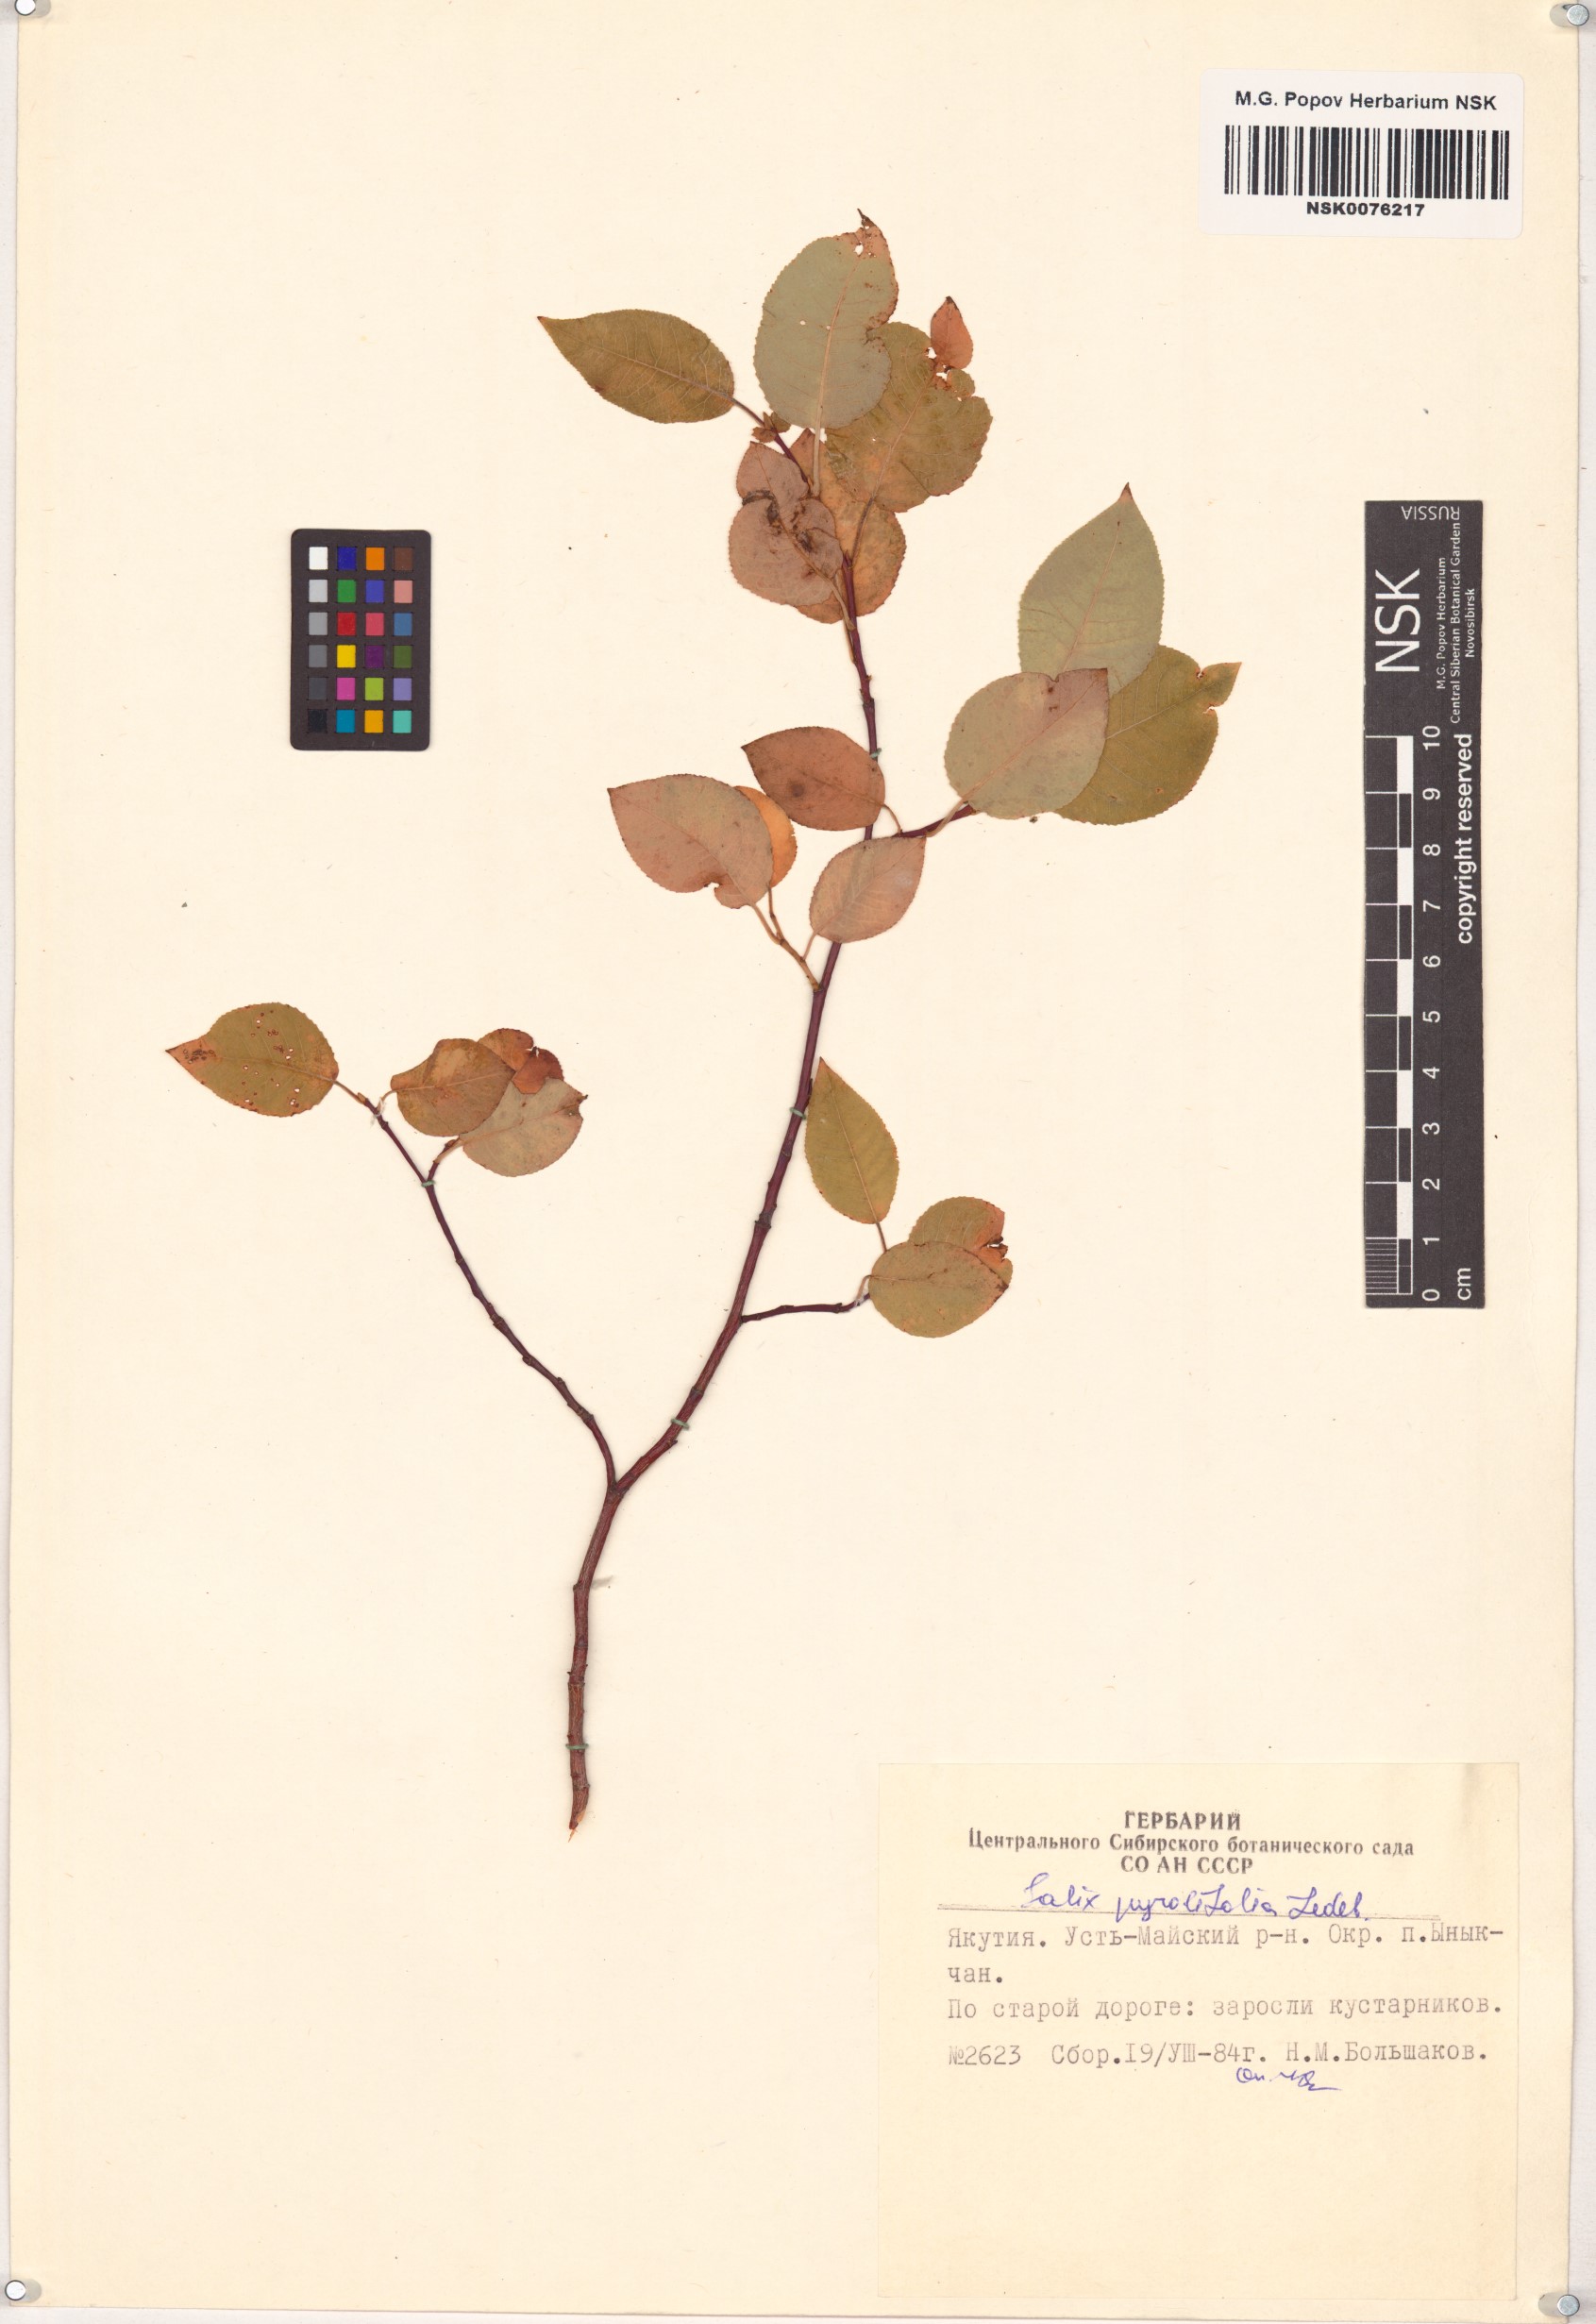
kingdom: Plantae
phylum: Tracheophyta
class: Magnoliopsida
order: Malpighiales
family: Salicaceae
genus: Salix
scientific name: Salix pyrolifolia
